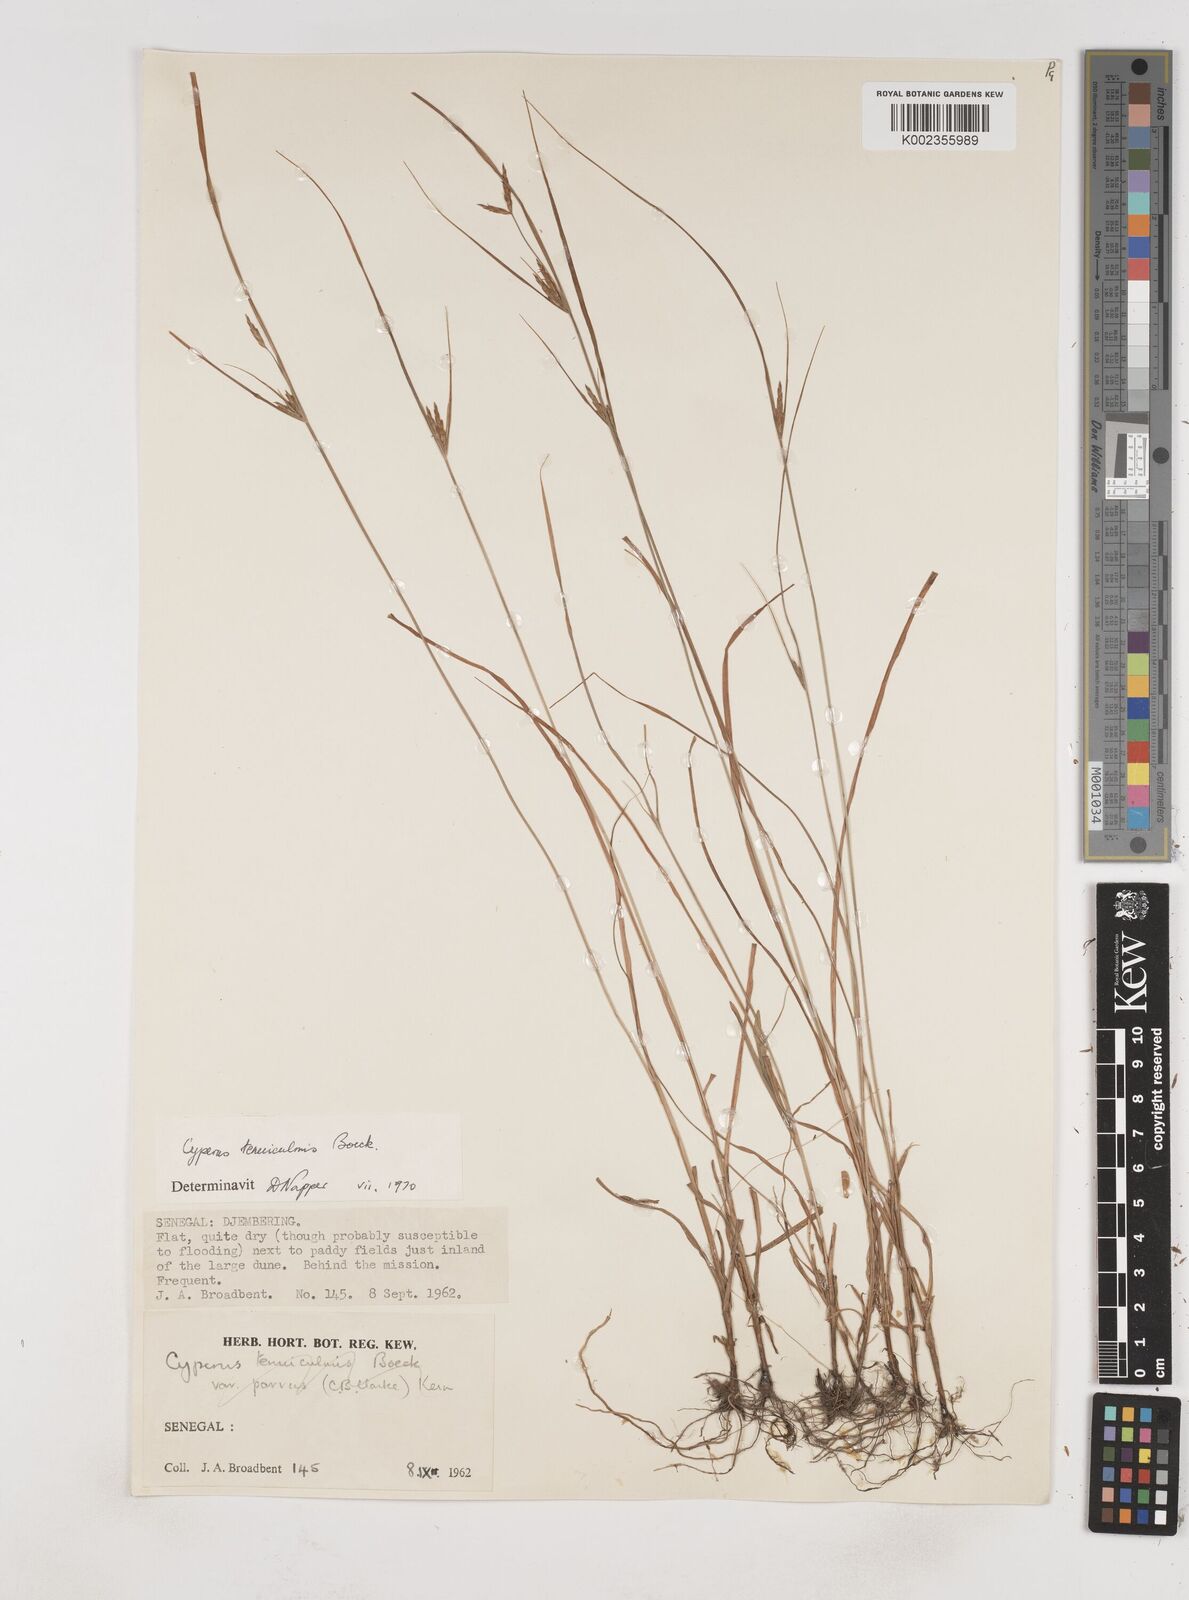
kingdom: Plantae
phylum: Tracheophyta
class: Liliopsida
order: Poales
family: Cyperaceae
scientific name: Cyperaceae
